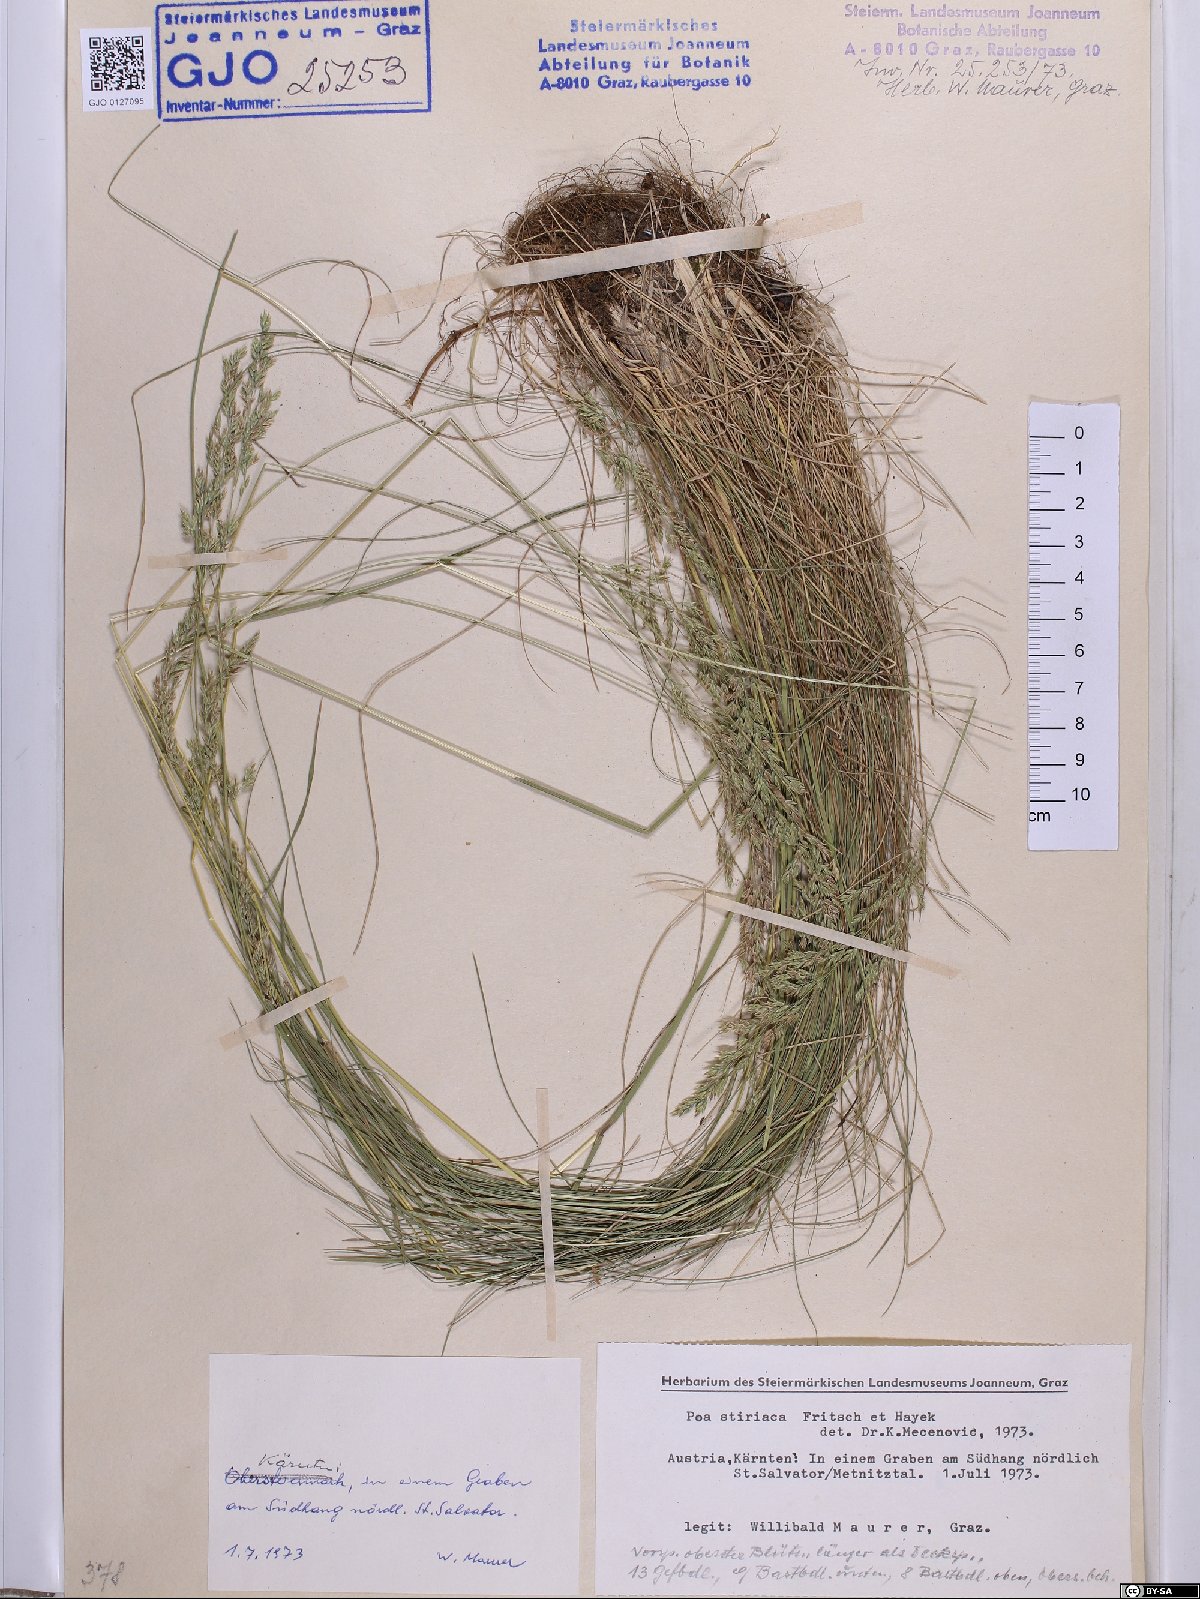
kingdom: Plantae
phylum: Tracheophyta
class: Liliopsida
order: Poales
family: Poaceae
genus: Poa
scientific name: Poa stiriaca
